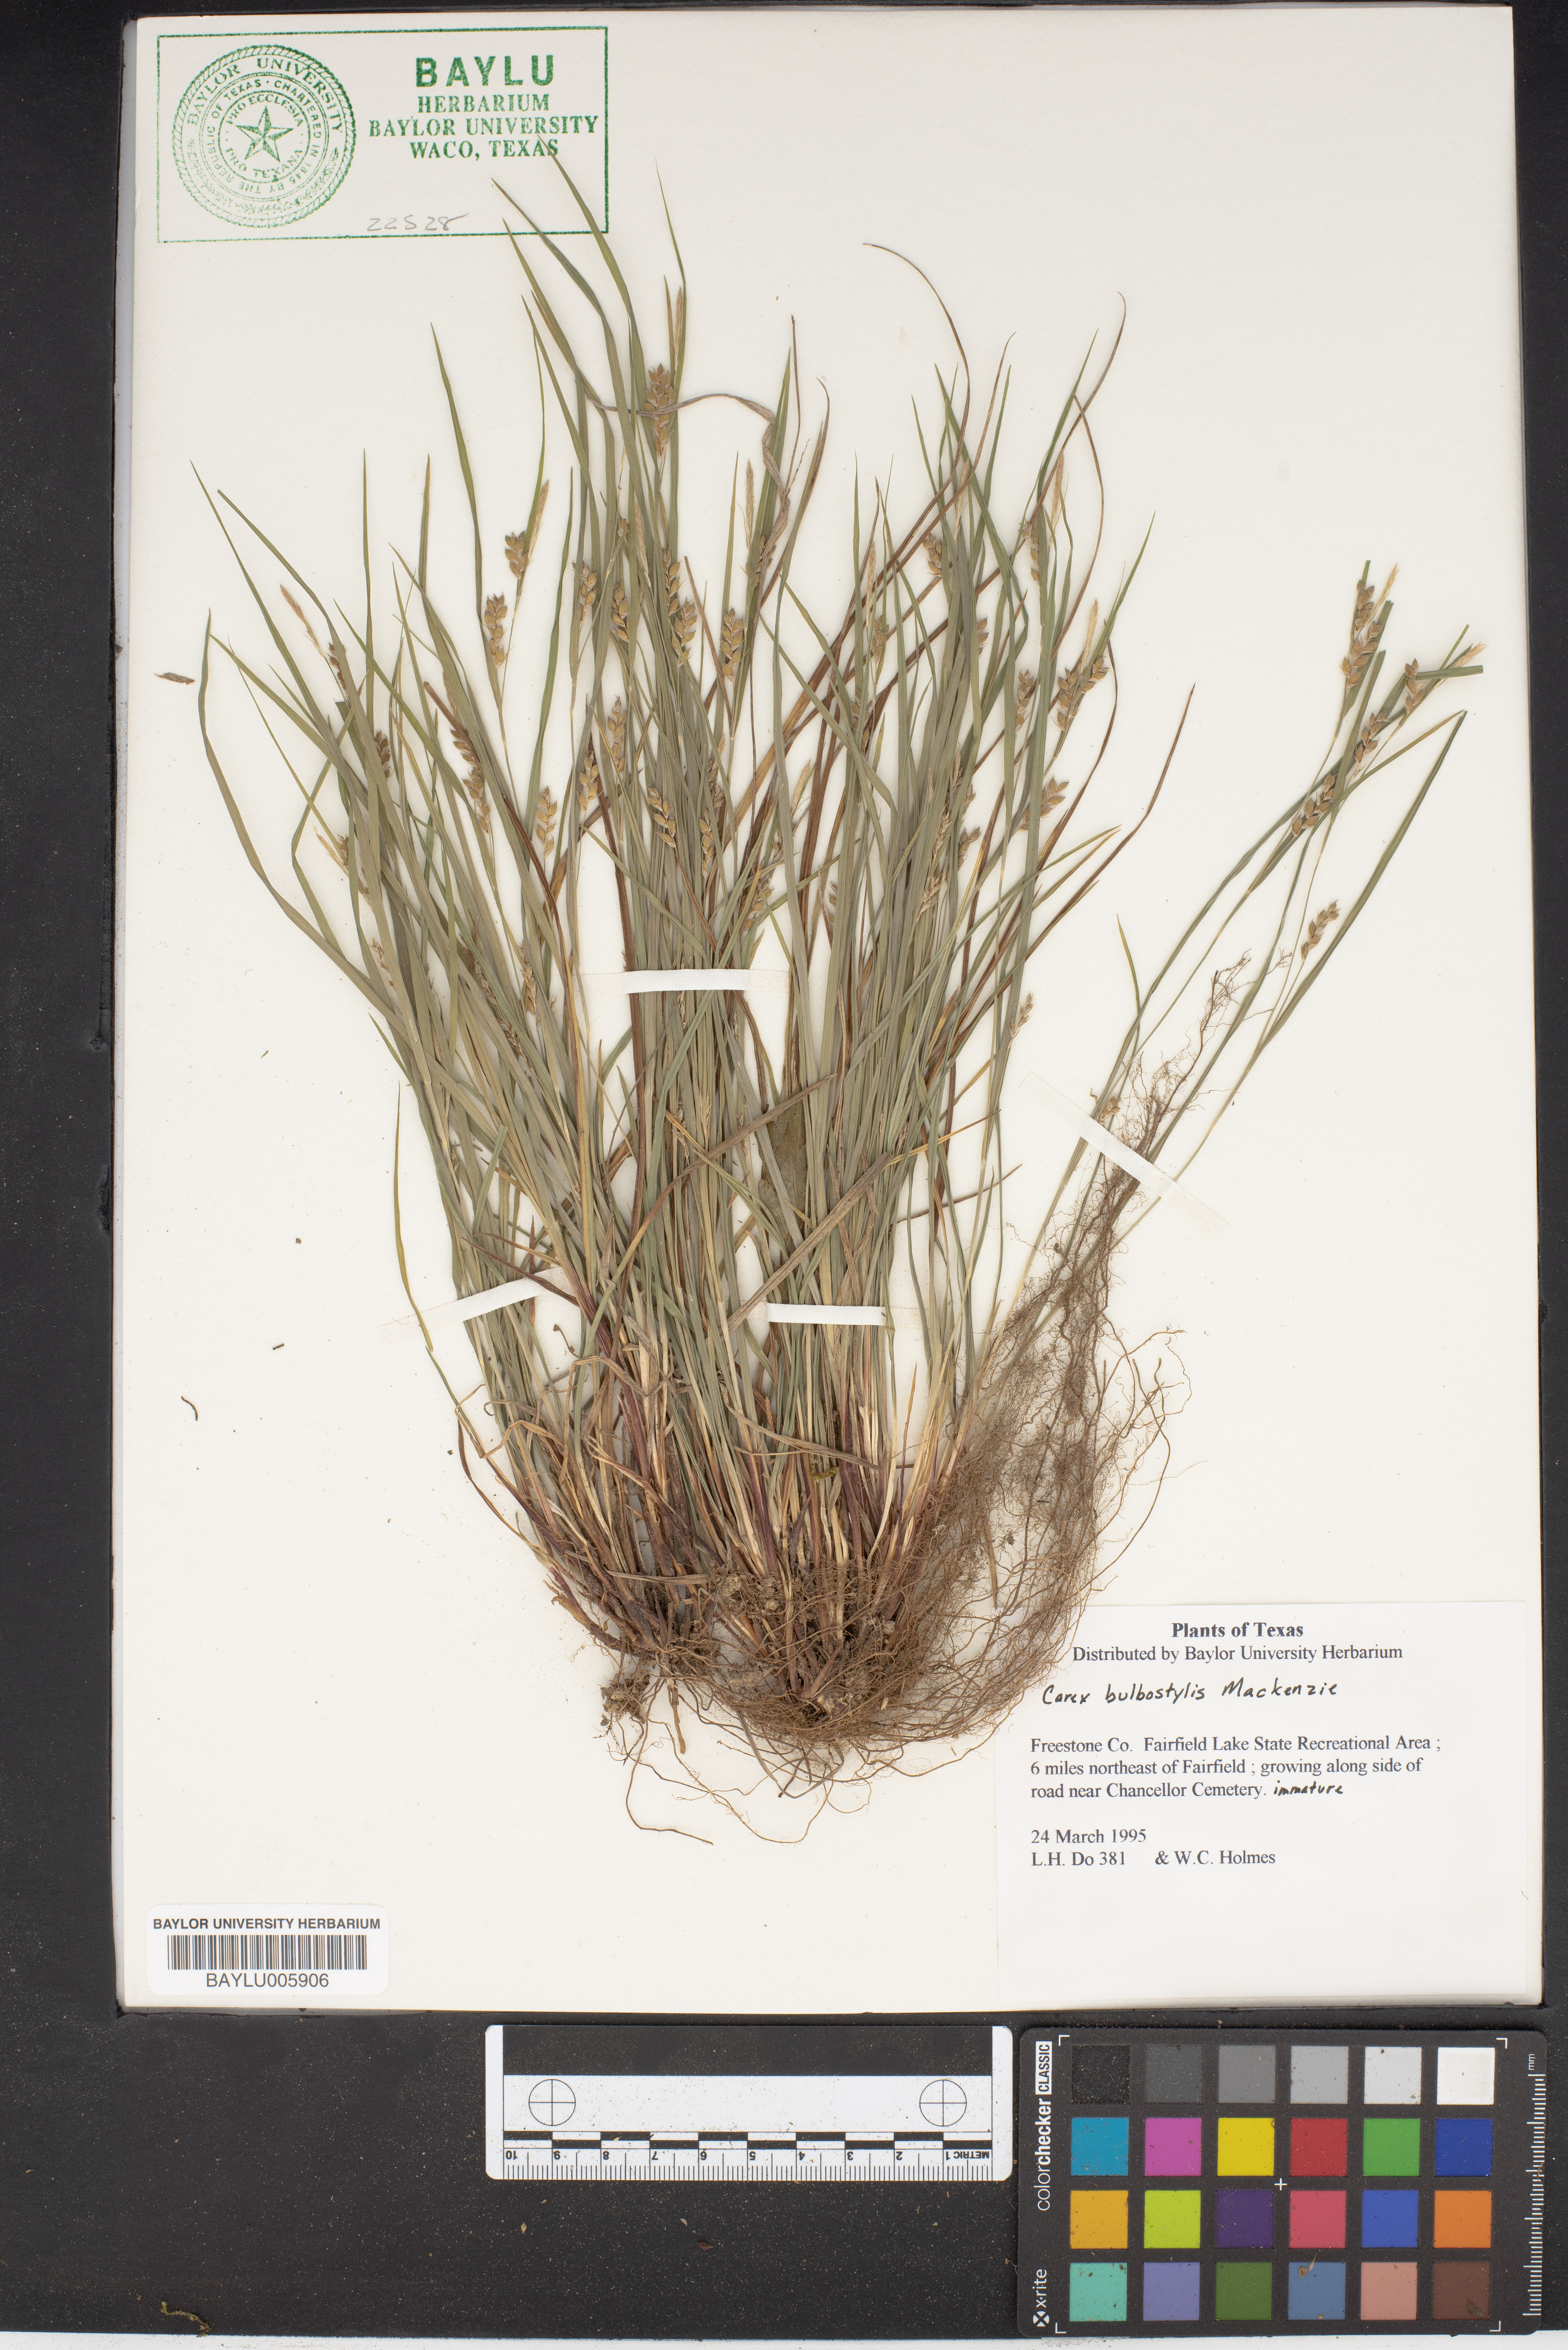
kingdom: Plantae
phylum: Tracheophyta
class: Liliopsida
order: Poales
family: Cyperaceae
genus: Carex
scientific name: Carex bulbostylis
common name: Eastern narrowleaf sedge
